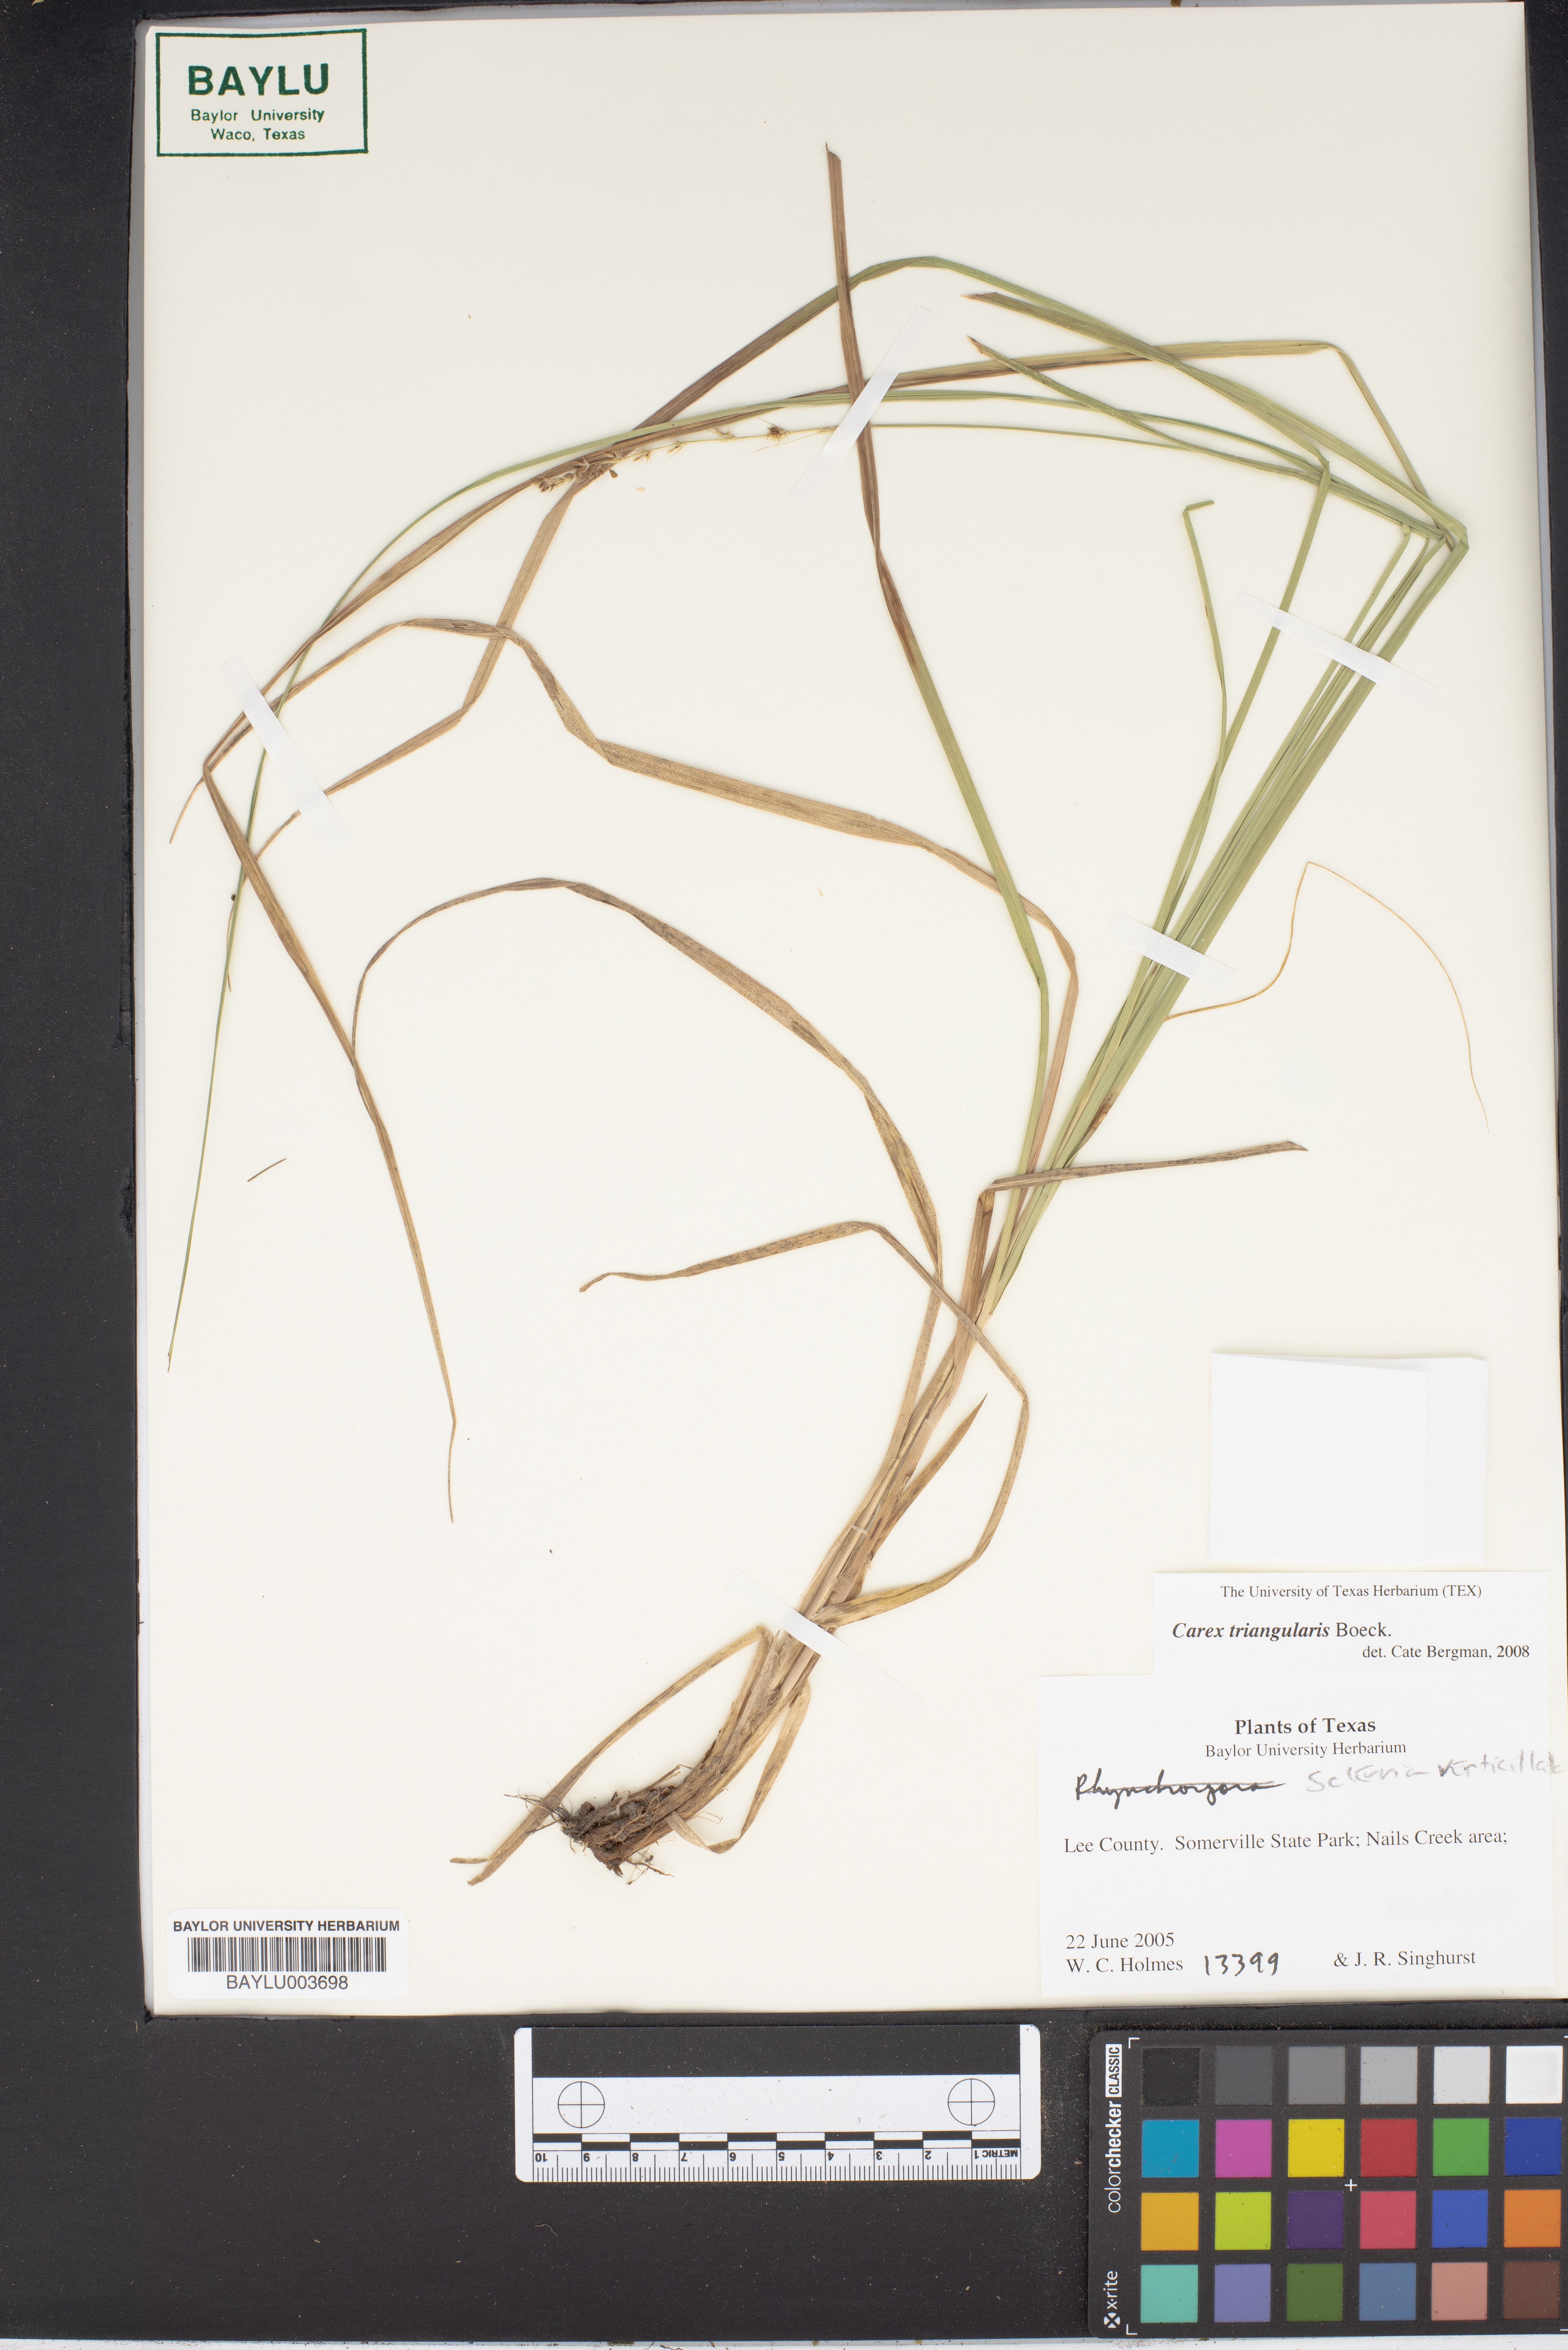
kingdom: Plantae
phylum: Tracheophyta
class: Liliopsida
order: Poales
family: Cyperaceae
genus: Carex
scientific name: Carex triangularis
